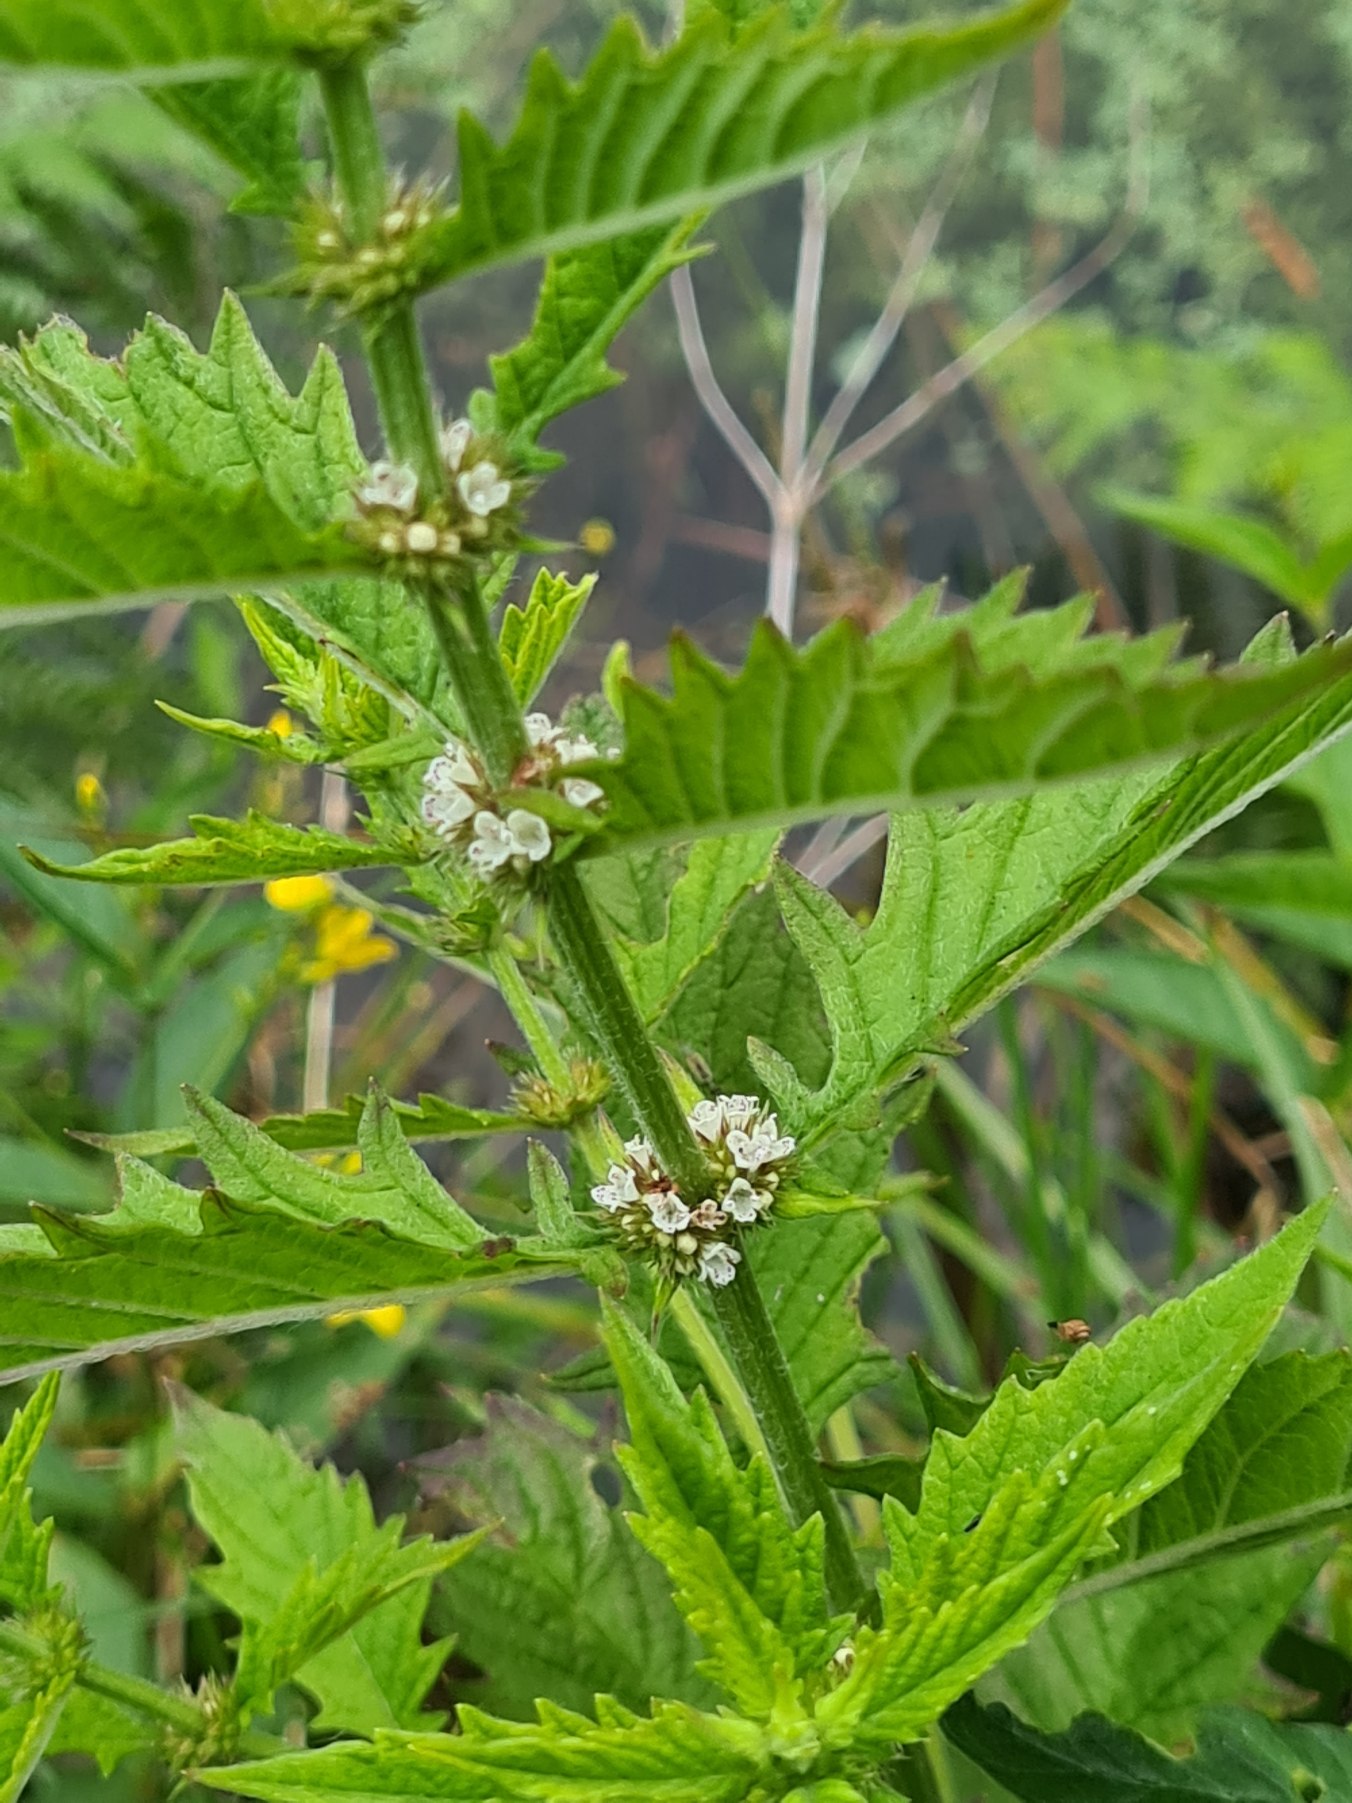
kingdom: Plantae
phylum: Tracheophyta
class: Magnoliopsida
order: Lamiales
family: Lamiaceae
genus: Lycopus
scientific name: Lycopus europaeus
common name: Sværtevæld
